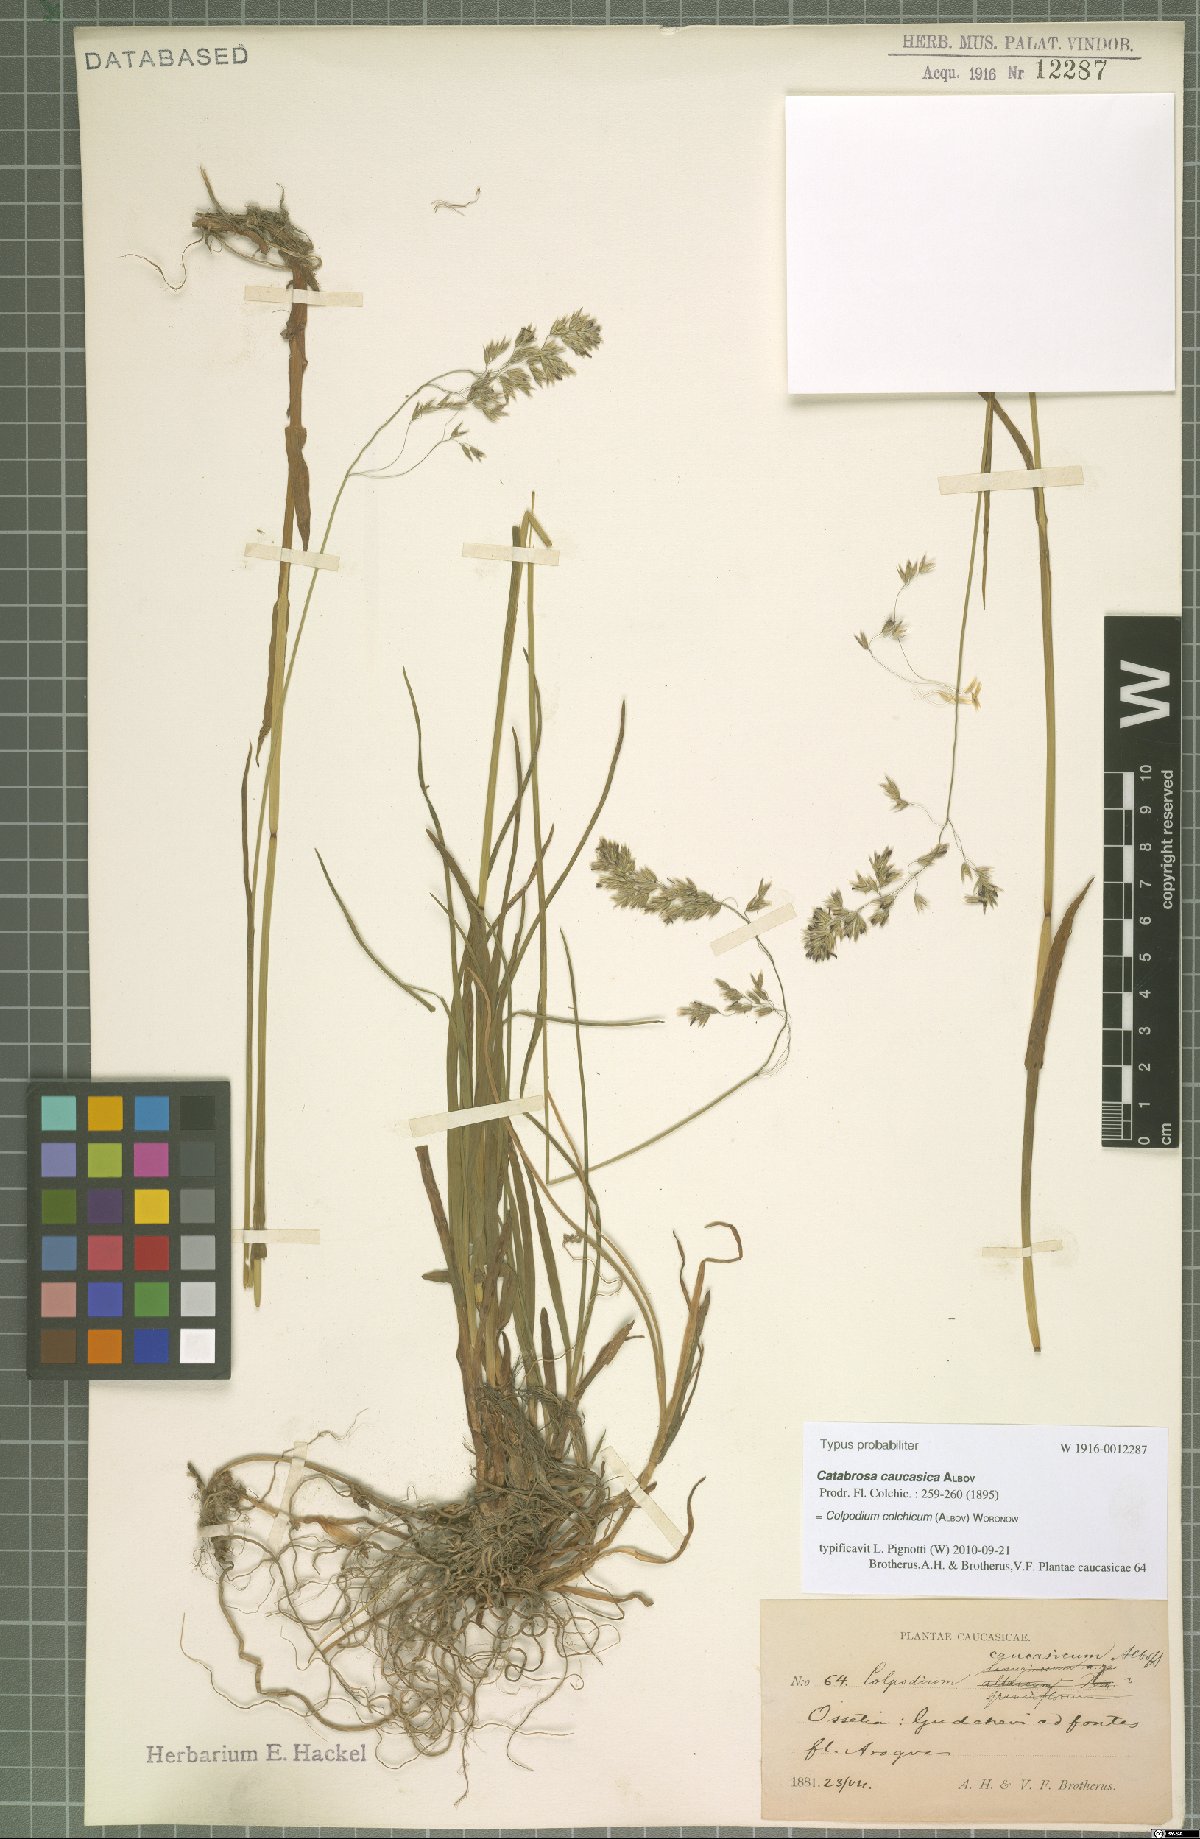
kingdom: Plantae
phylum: Tracheophyta
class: Liliopsida
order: Poales
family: Poaceae
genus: Paracolpodium
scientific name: Paracolpodium colchicum
